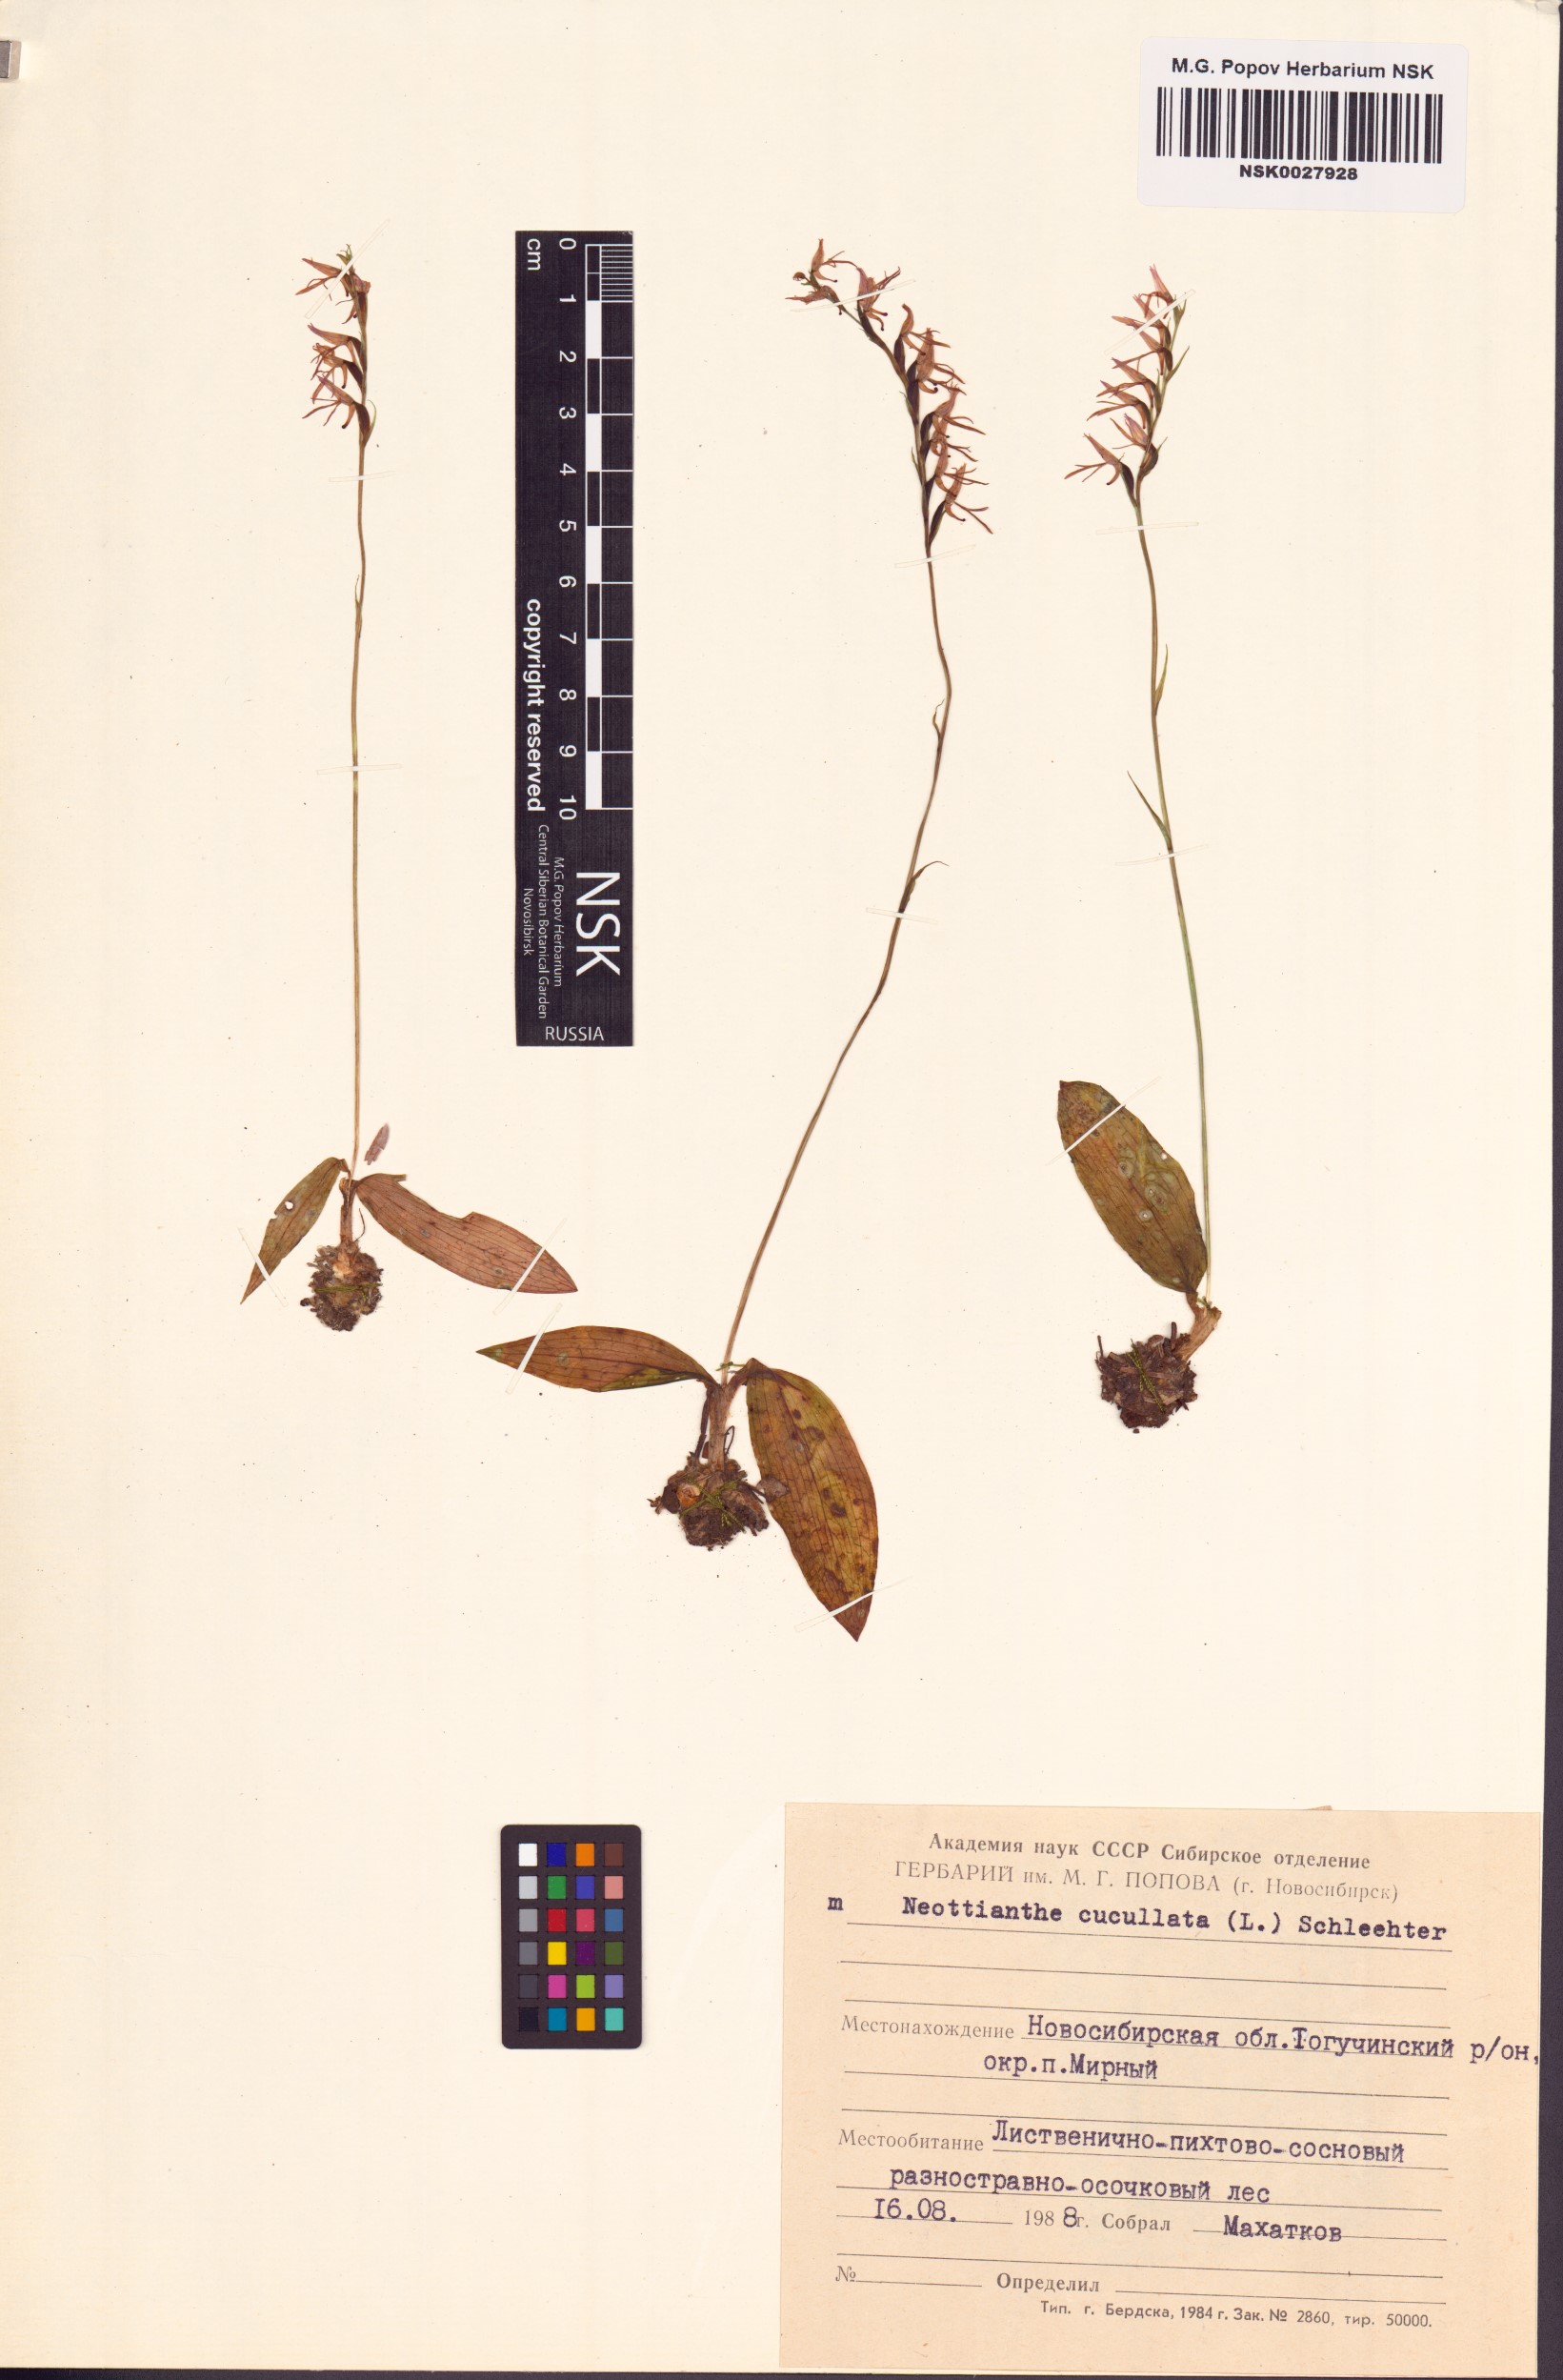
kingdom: Plantae
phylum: Tracheophyta
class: Liliopsida
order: Asparagales
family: Orchidaceae
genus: Hemipilia
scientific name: Hemipilia cucullata
